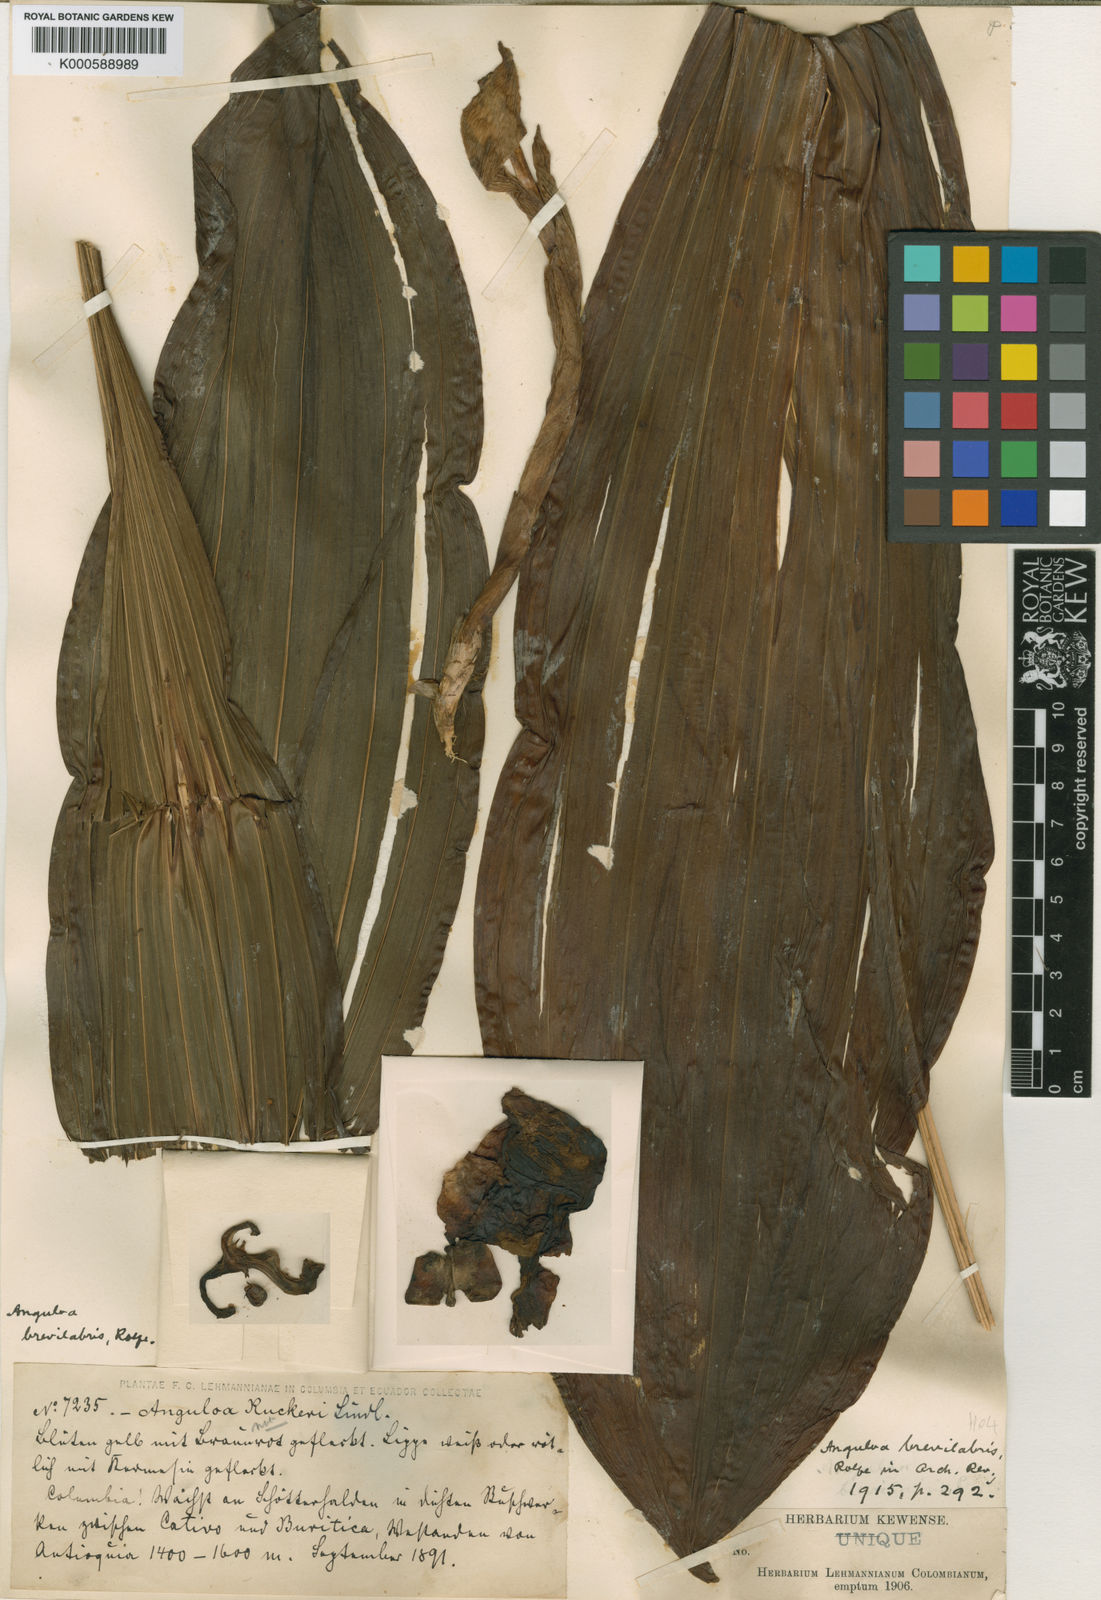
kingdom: Plantae
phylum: Tracheophyta
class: Liliopsida
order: Asparagales
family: Orchidaceae
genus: Anguloa
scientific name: Anguloa brevilabris
